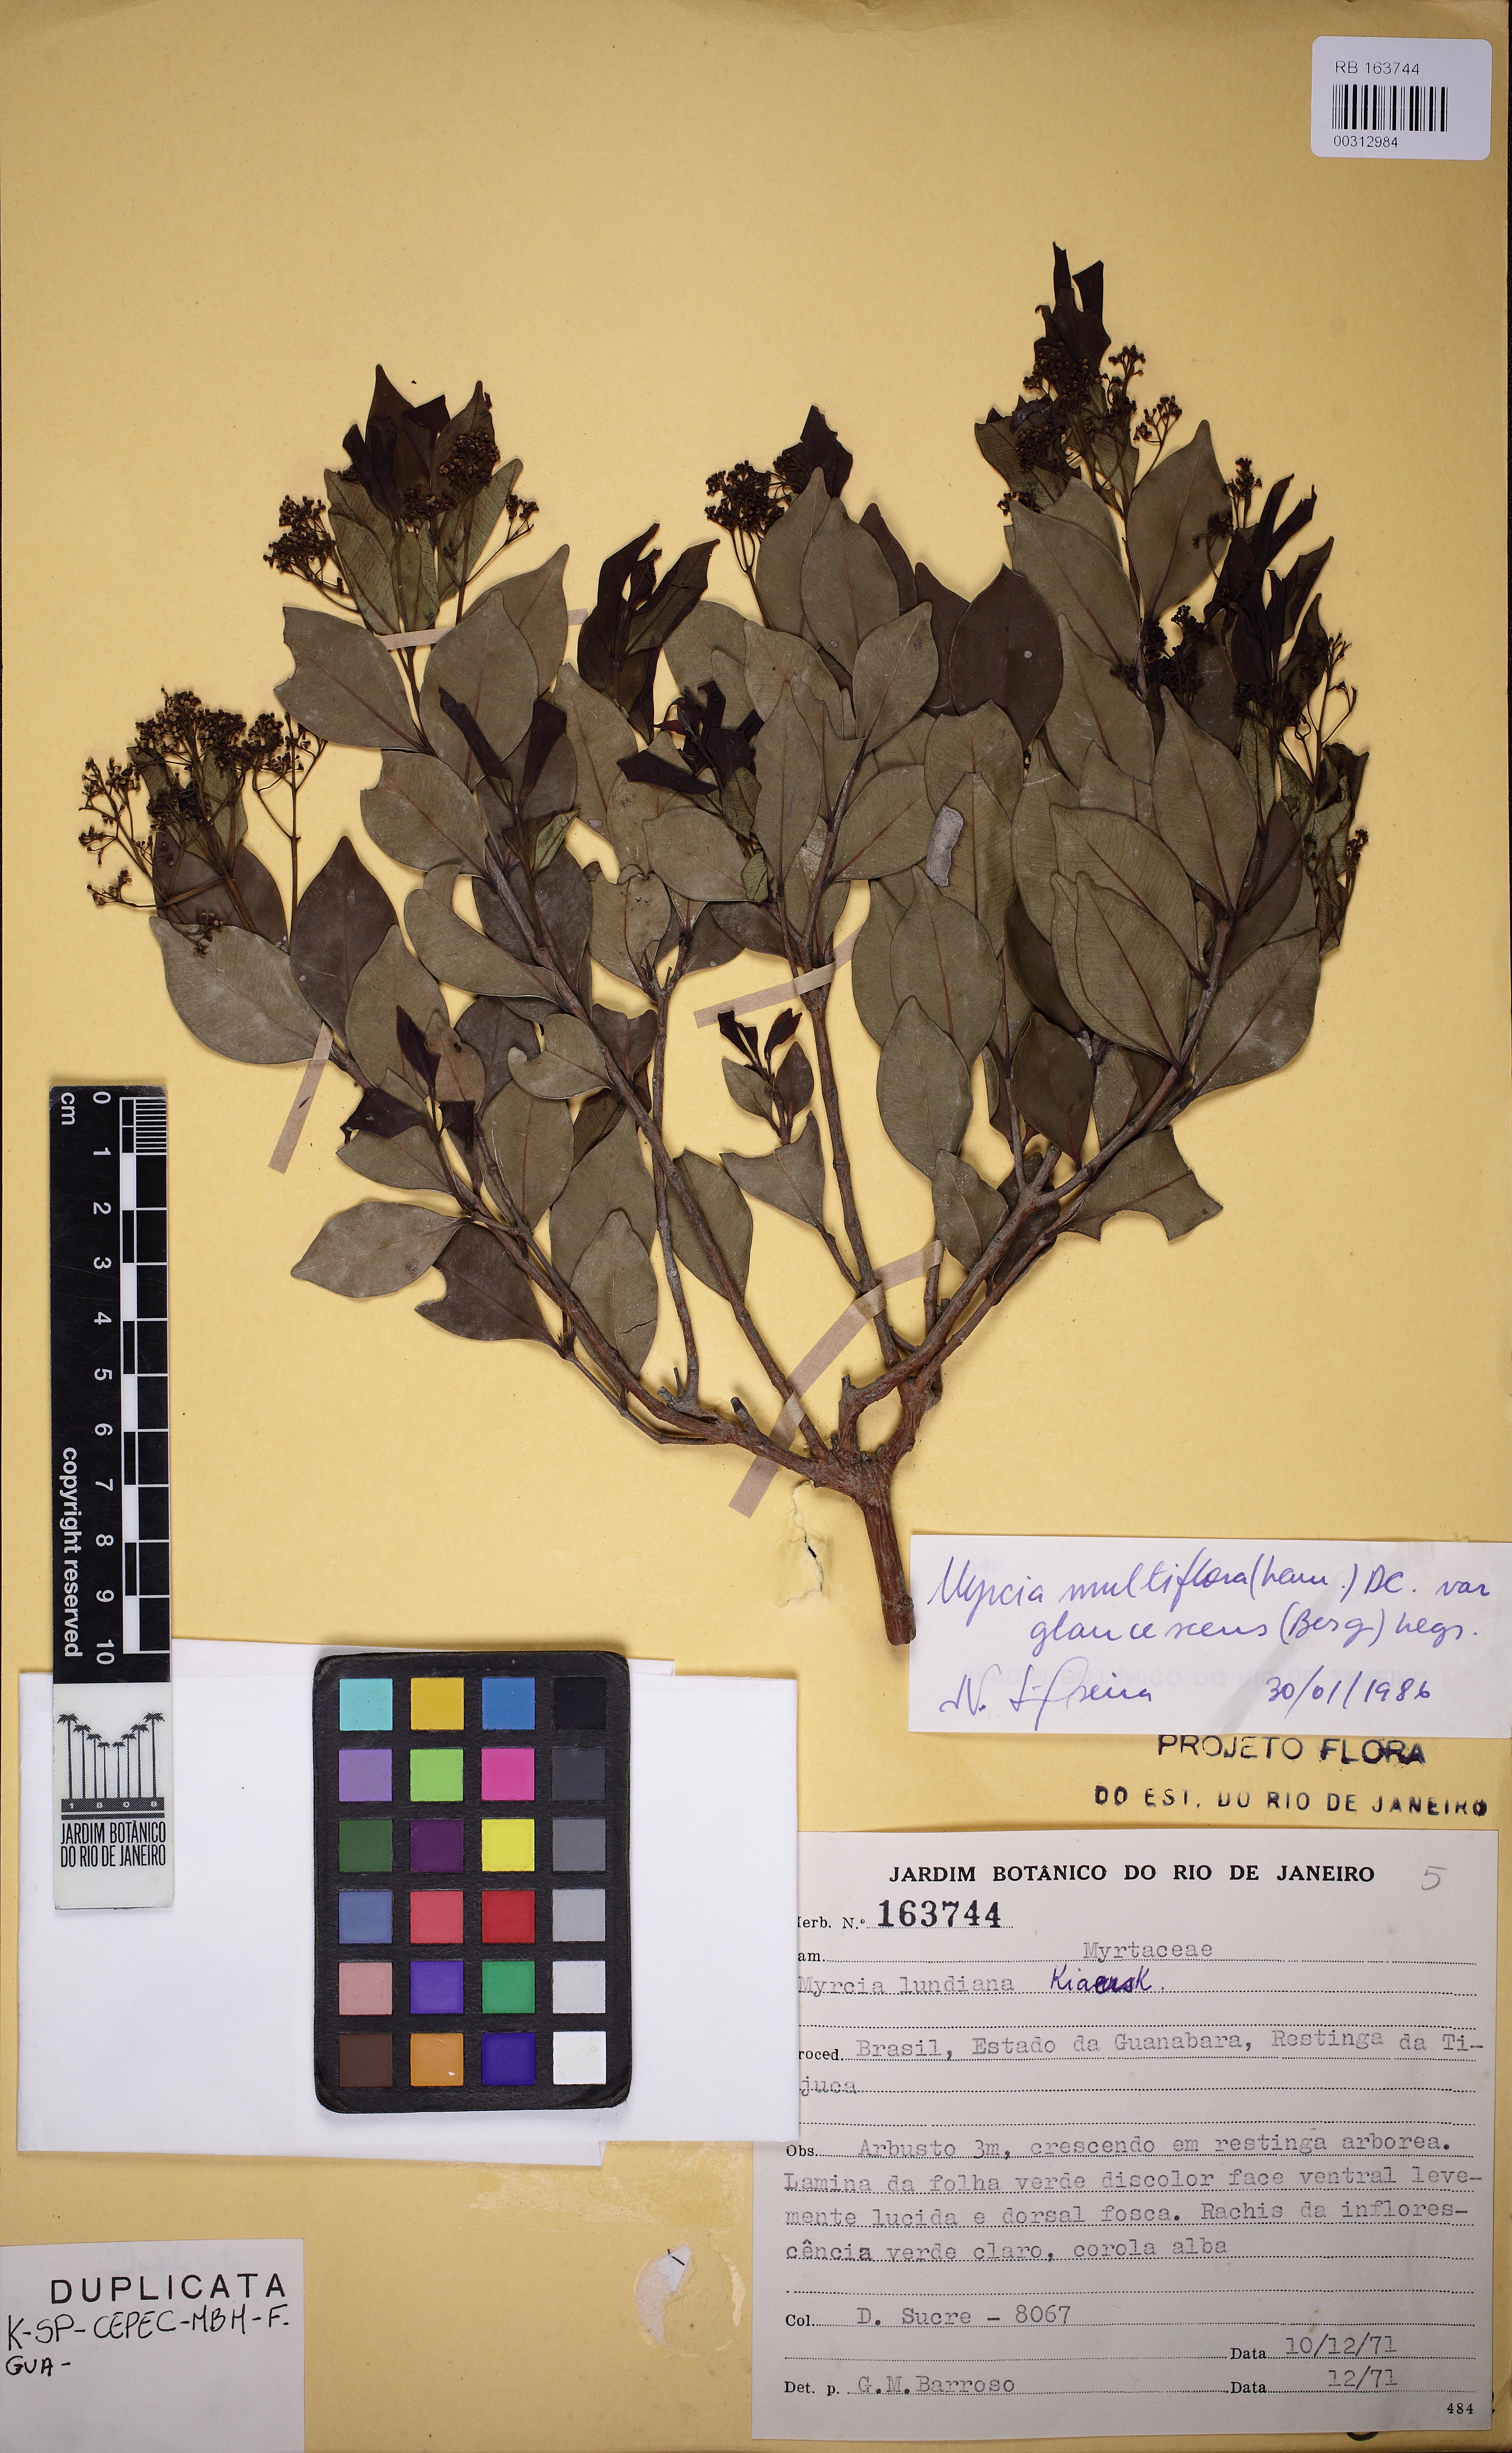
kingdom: Plantae
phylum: Tracheophyta
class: Magnoliopsida
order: Myrtales
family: Myrtaceae
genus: Myrcia
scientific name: Myrcia multiflora
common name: Pedra hume
